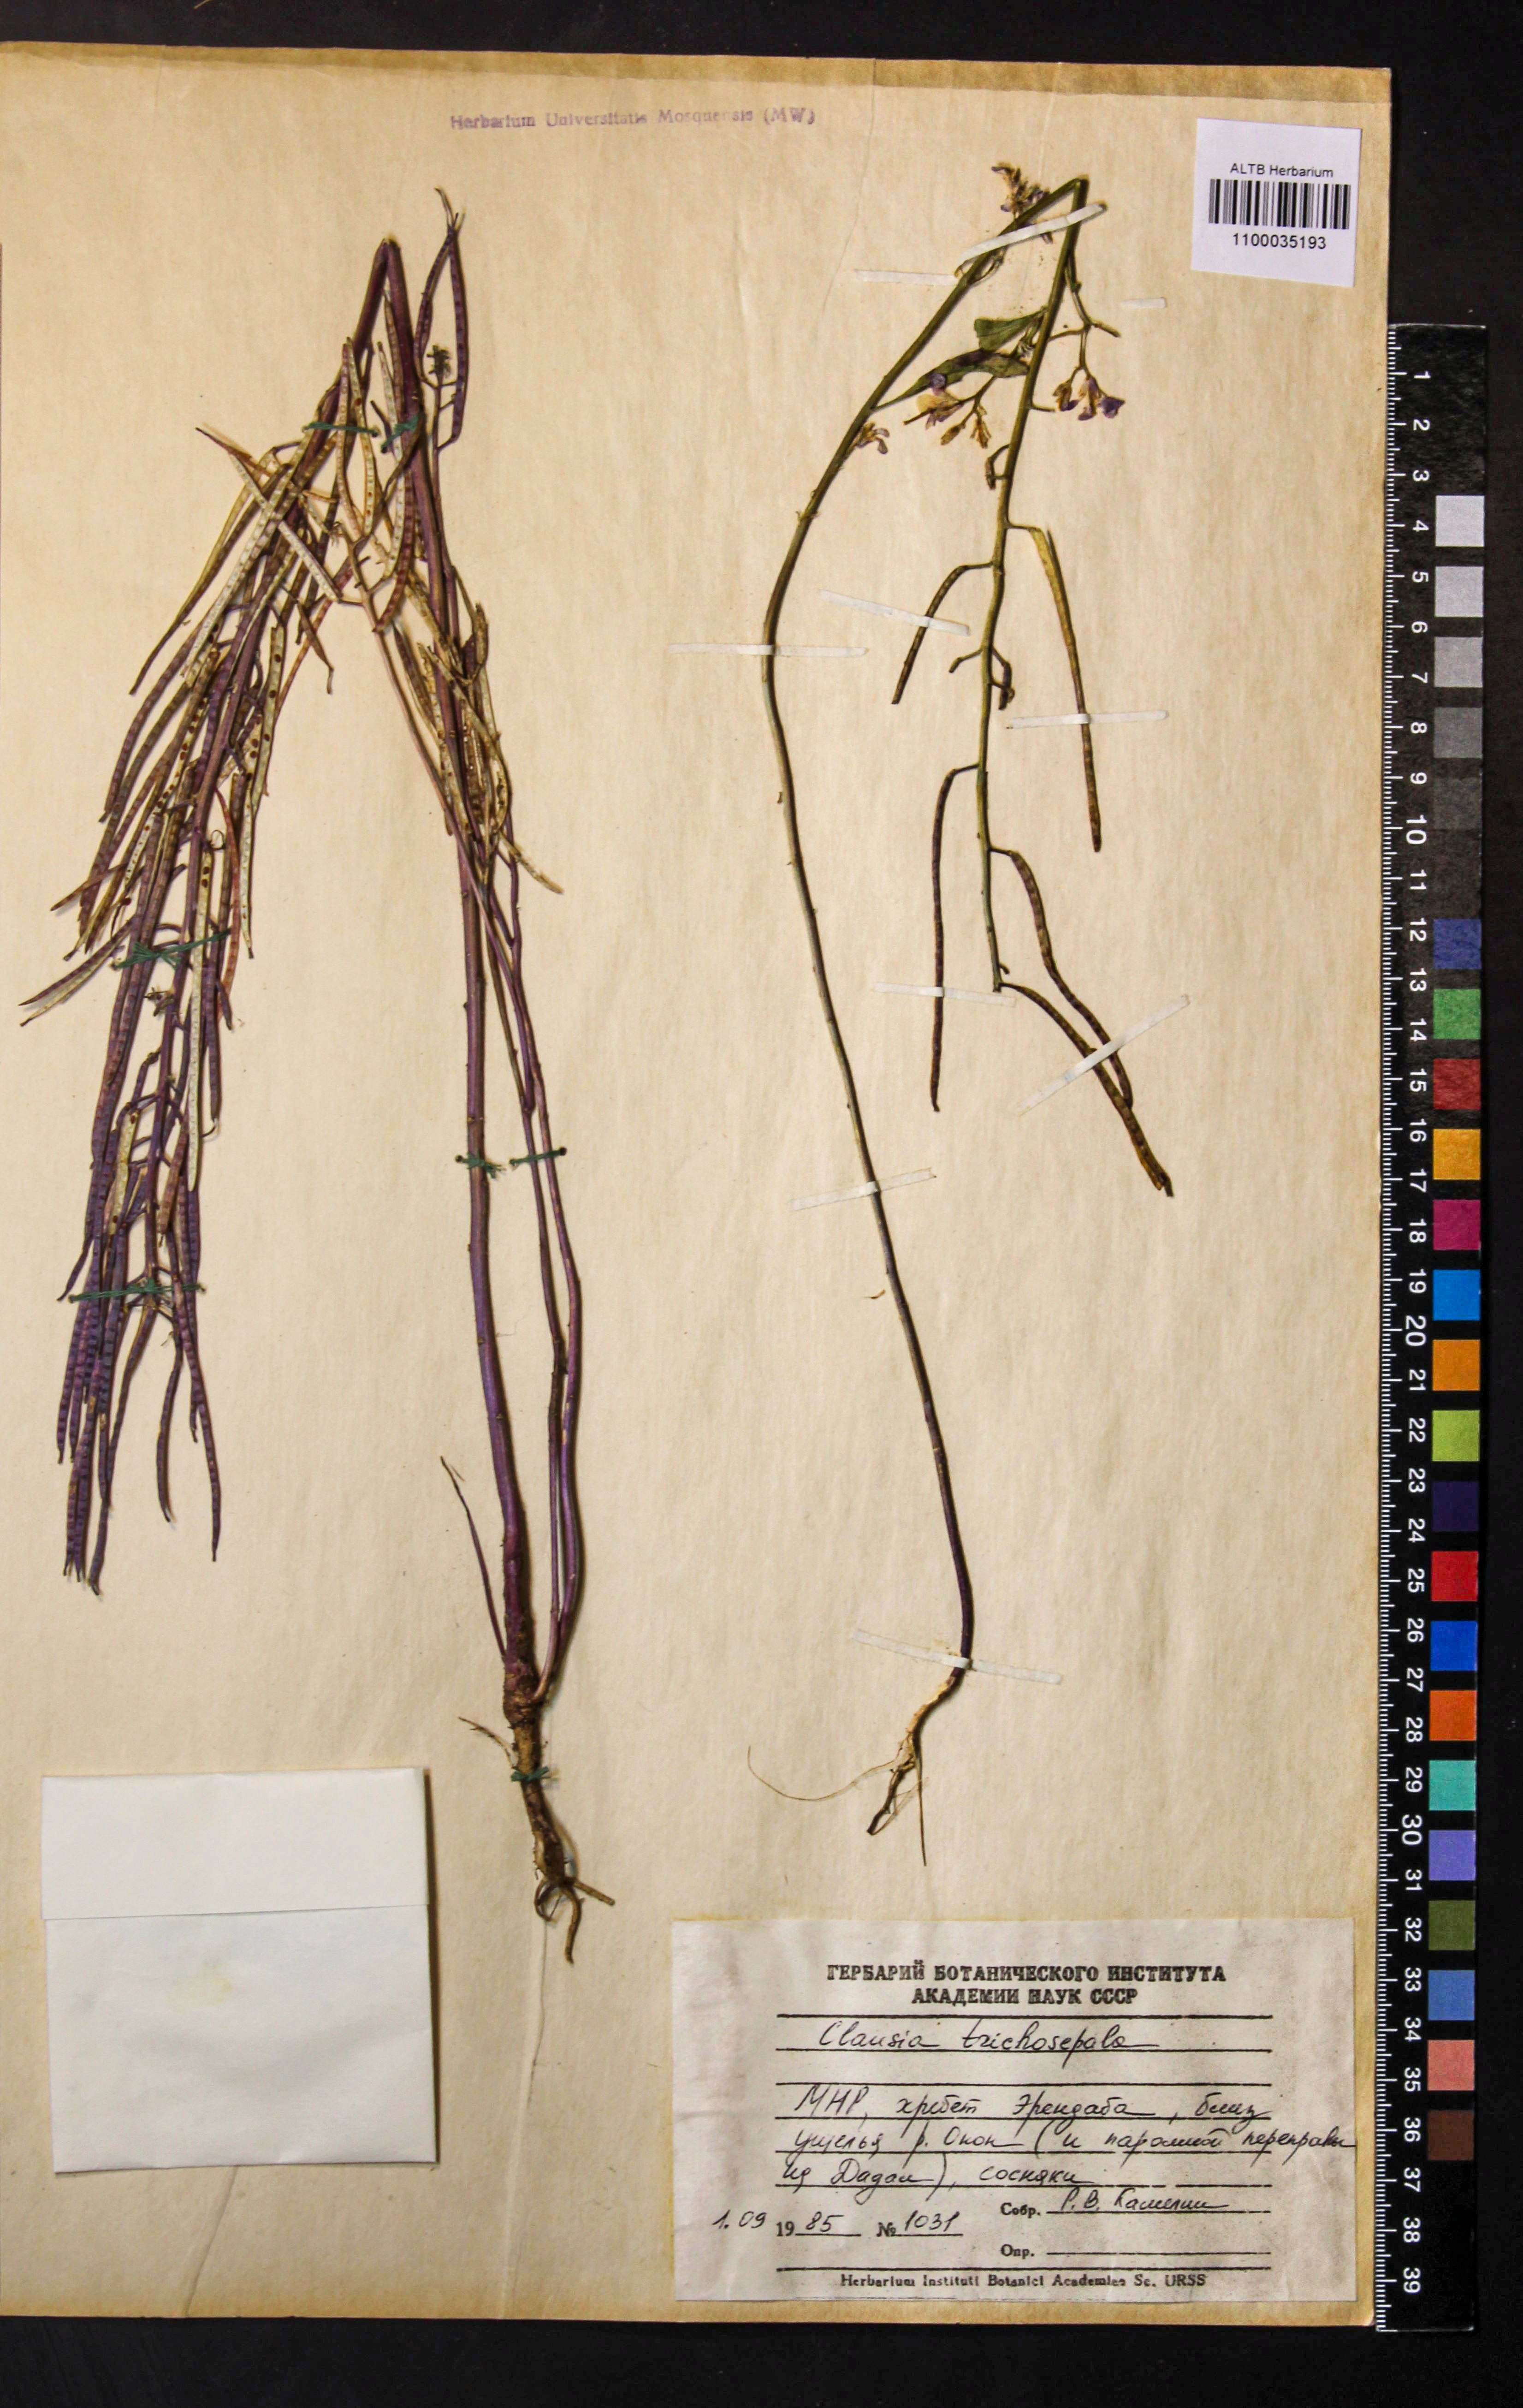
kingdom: Plantae
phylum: Tracheophyta
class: Magnoliopsida
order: Brassicales
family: Brassicaceae
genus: Clausia
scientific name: Clausia trichosepala
